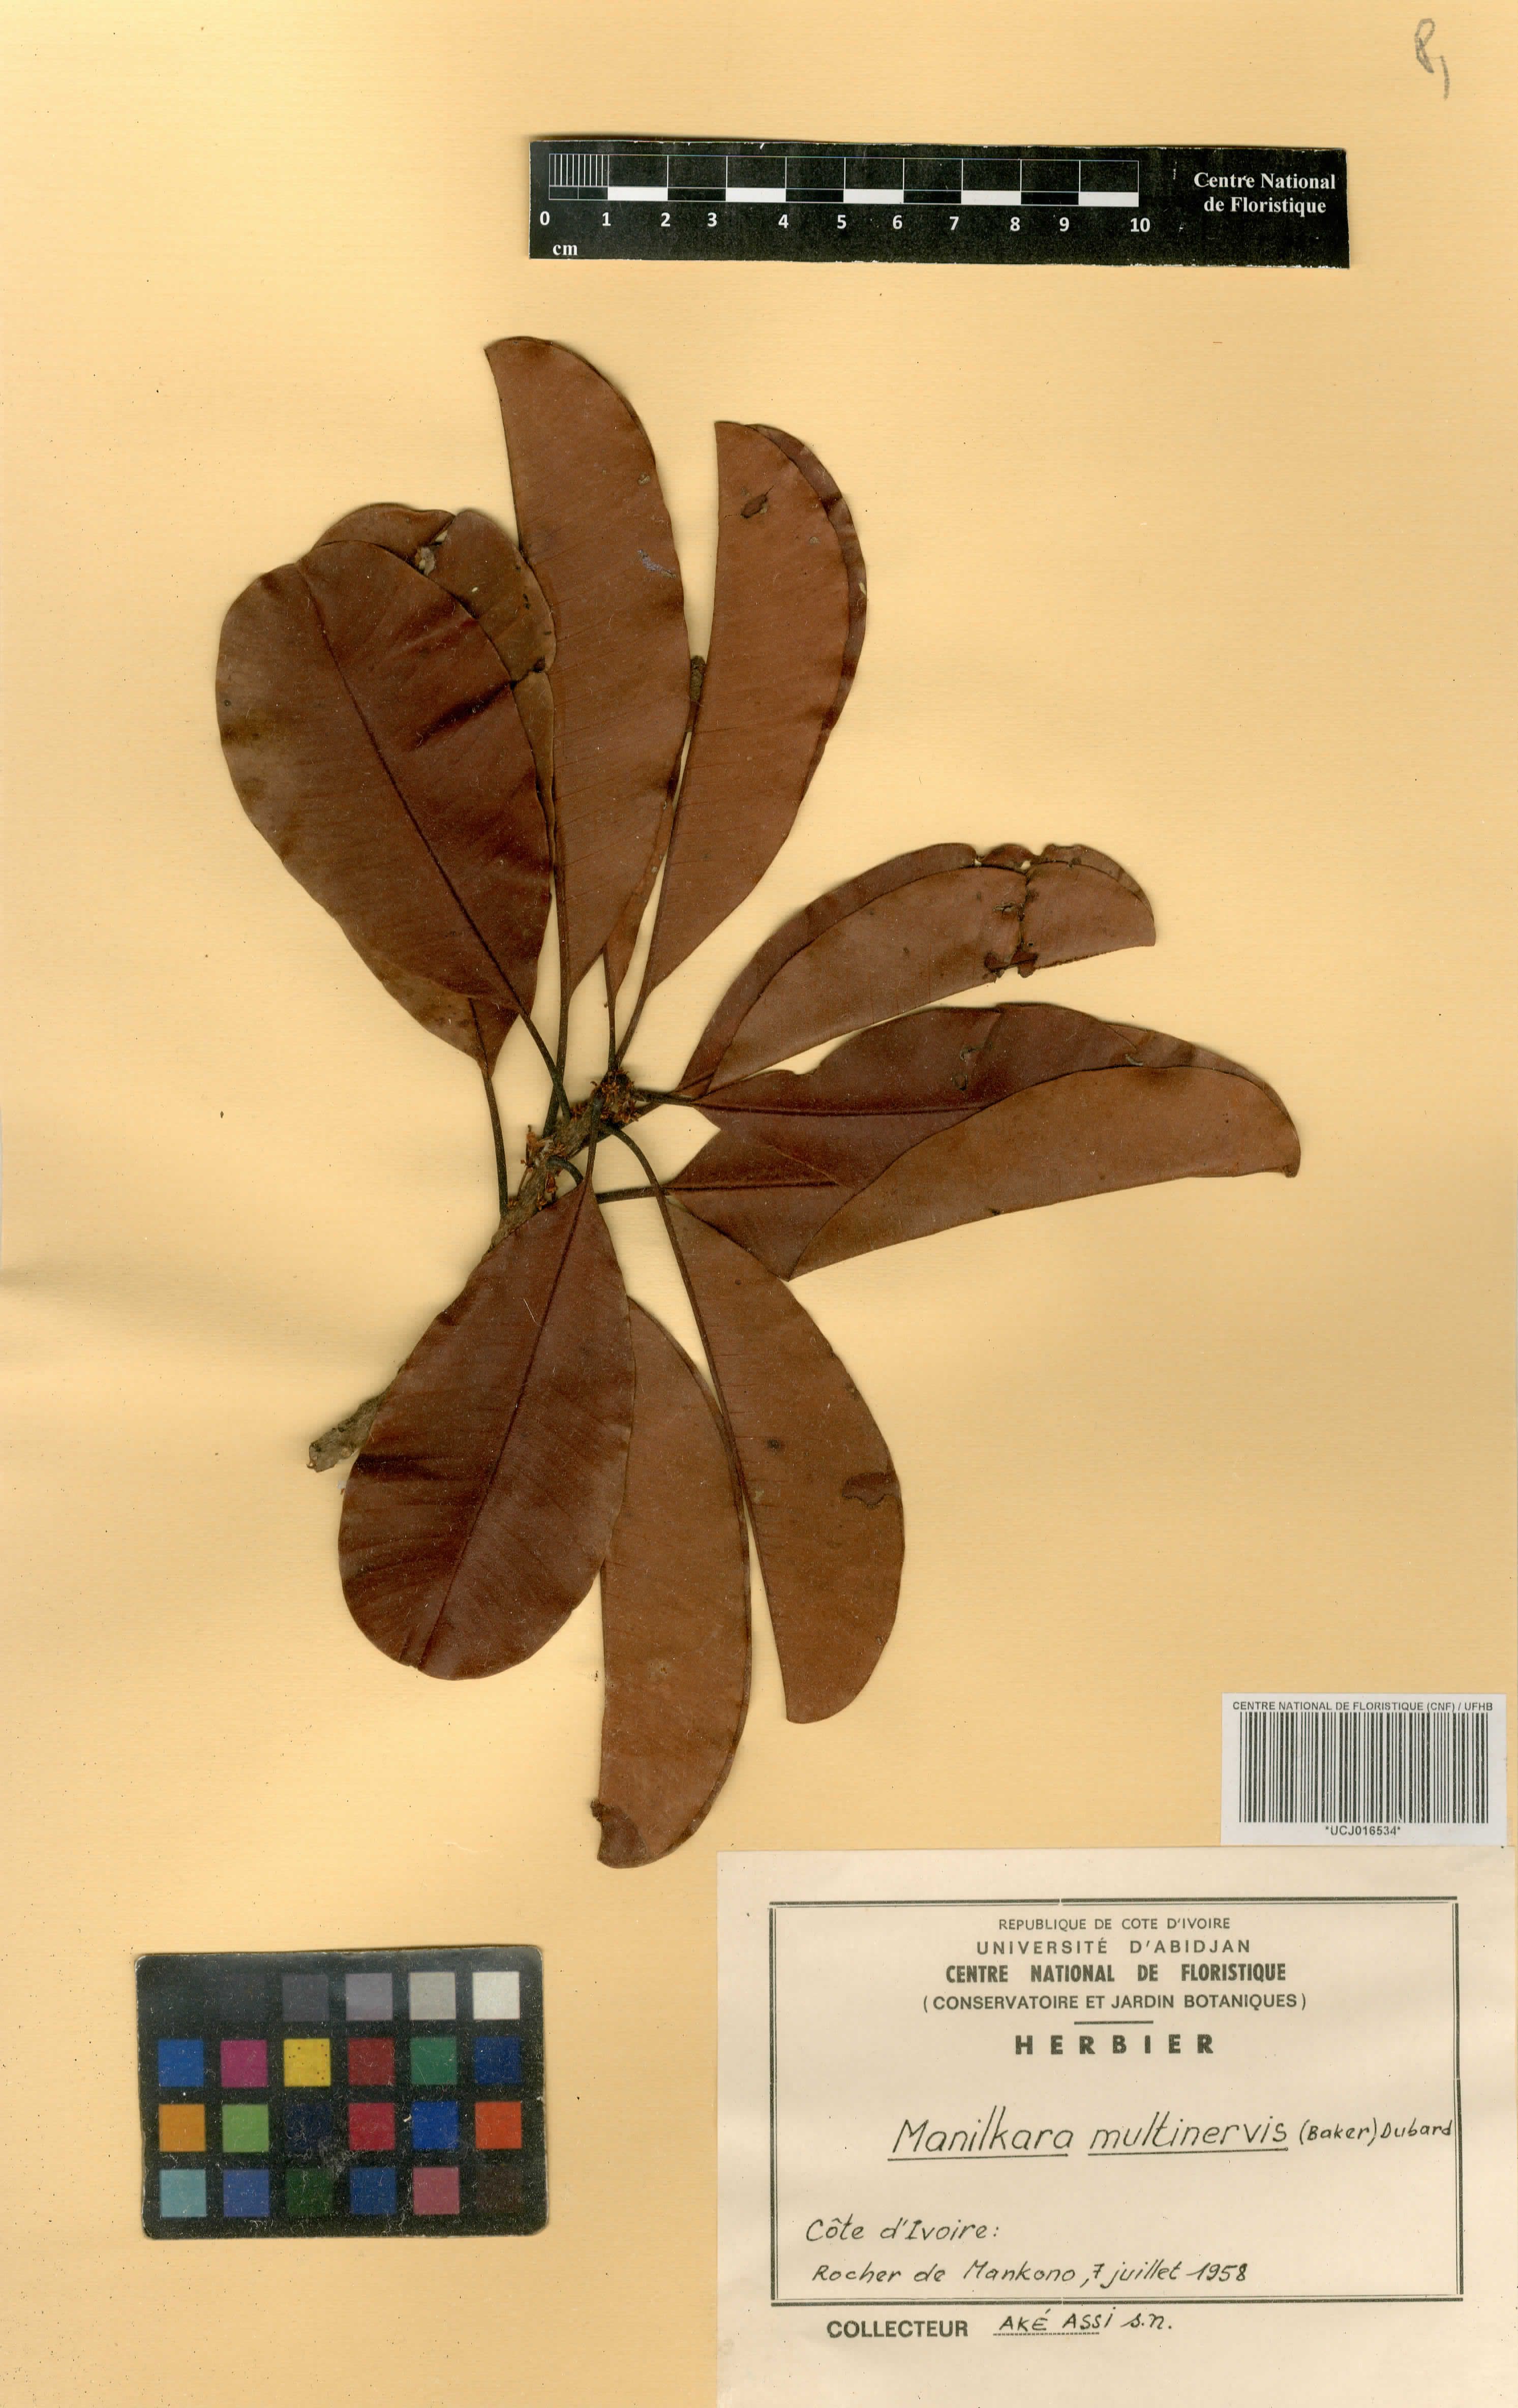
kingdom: Plantae
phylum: Tracheophyta
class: Magnoliopsida
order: Ericales
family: Sapotaceae
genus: Manilkara
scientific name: Manilkara obovata
